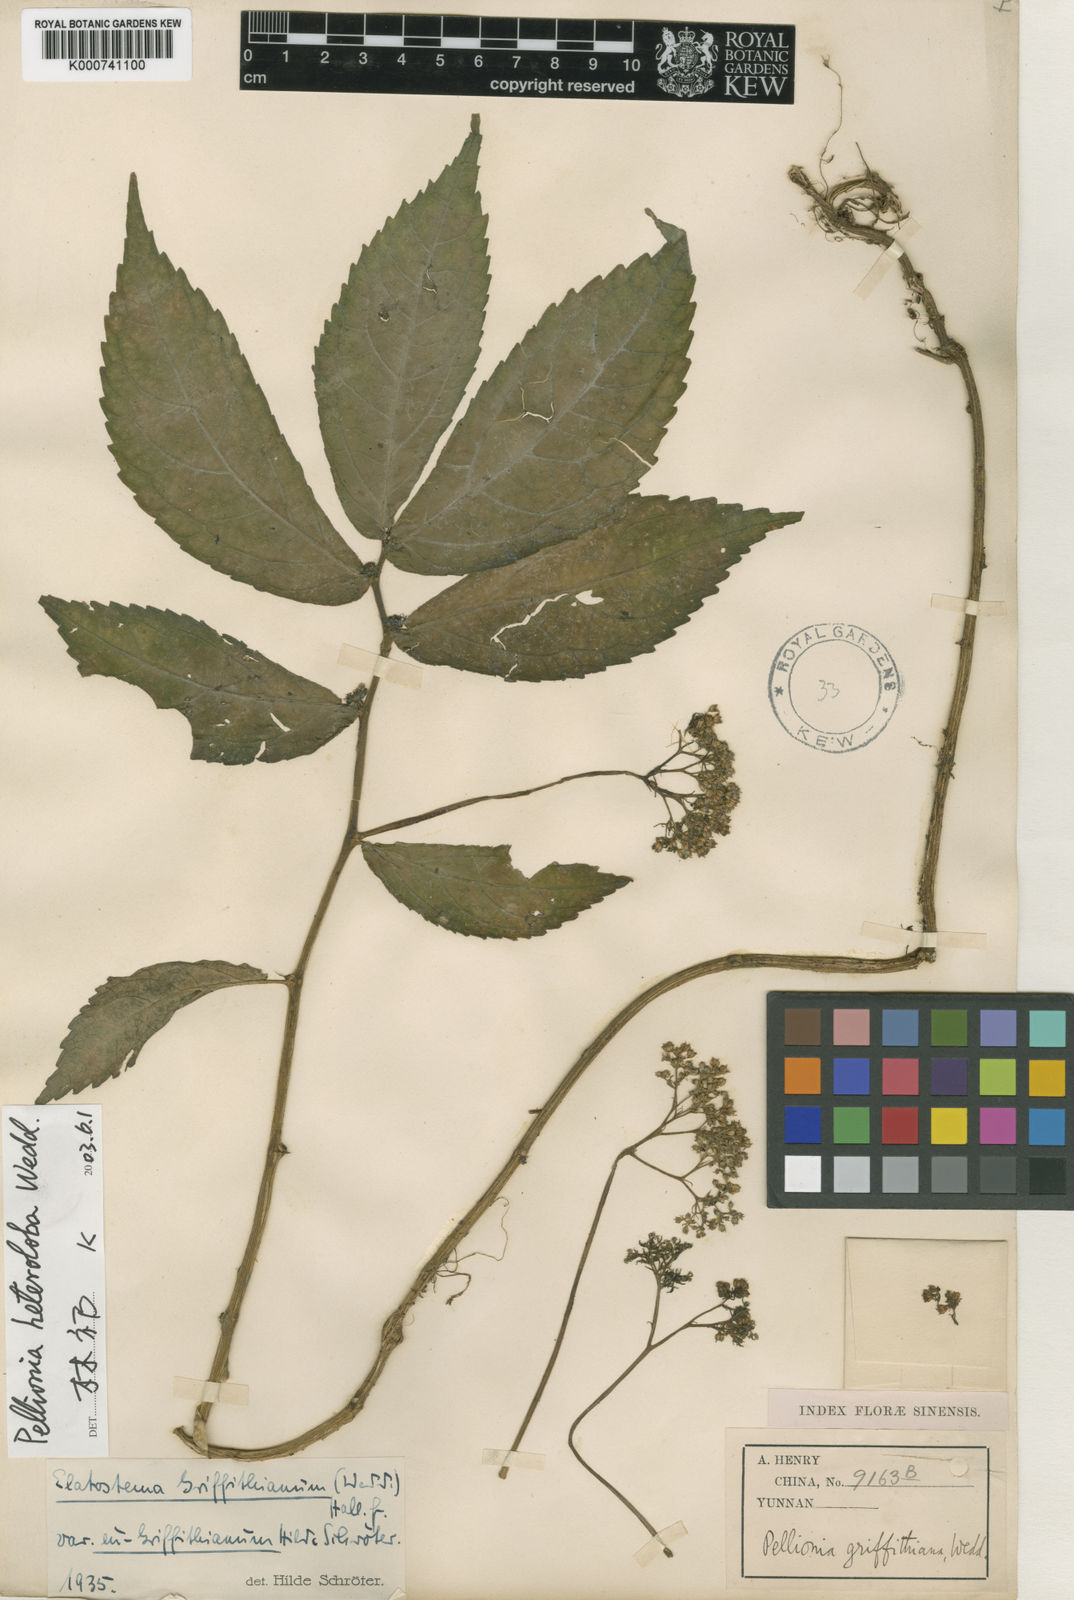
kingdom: Plantae
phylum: Tracheophyta
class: Magnoliopsida
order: Rosales
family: Urticaceae
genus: Elatostema
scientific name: Elatostema heterolobum
